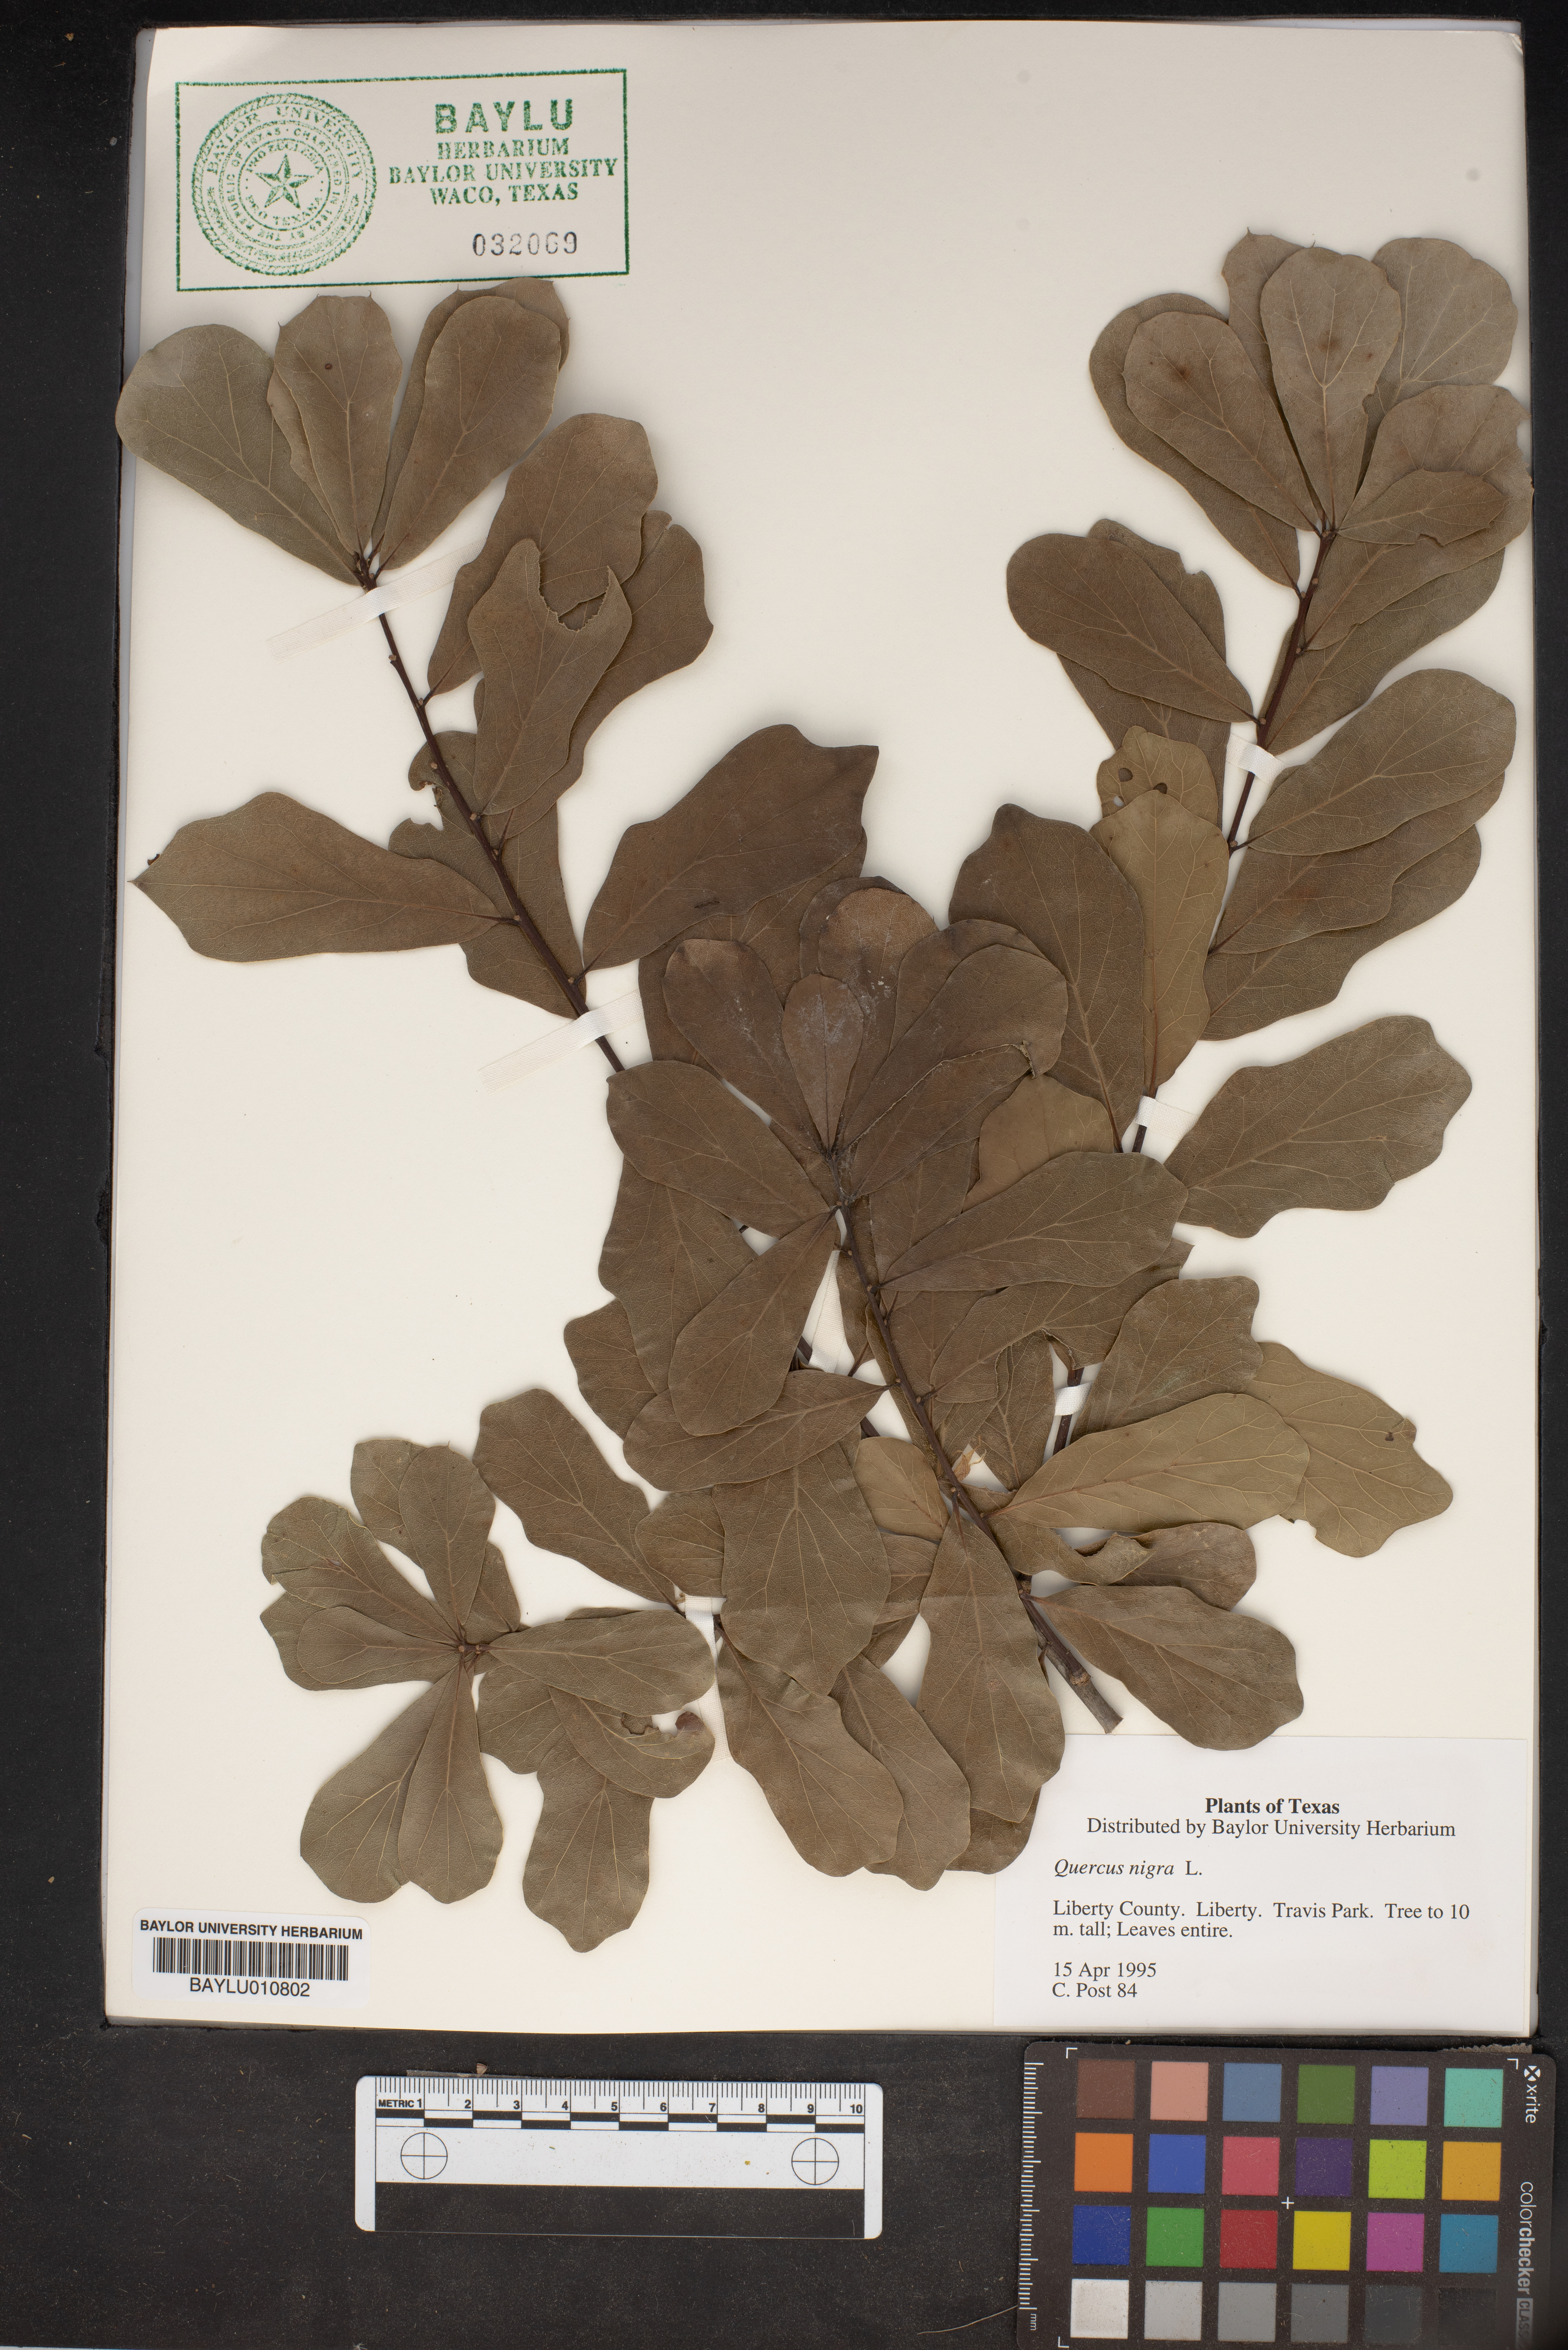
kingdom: Plantae
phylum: Tracheophyta
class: Magnoliopsida
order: Fagales
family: Fagaceae
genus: Quercus
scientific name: Quercus nigra
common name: Water oak
